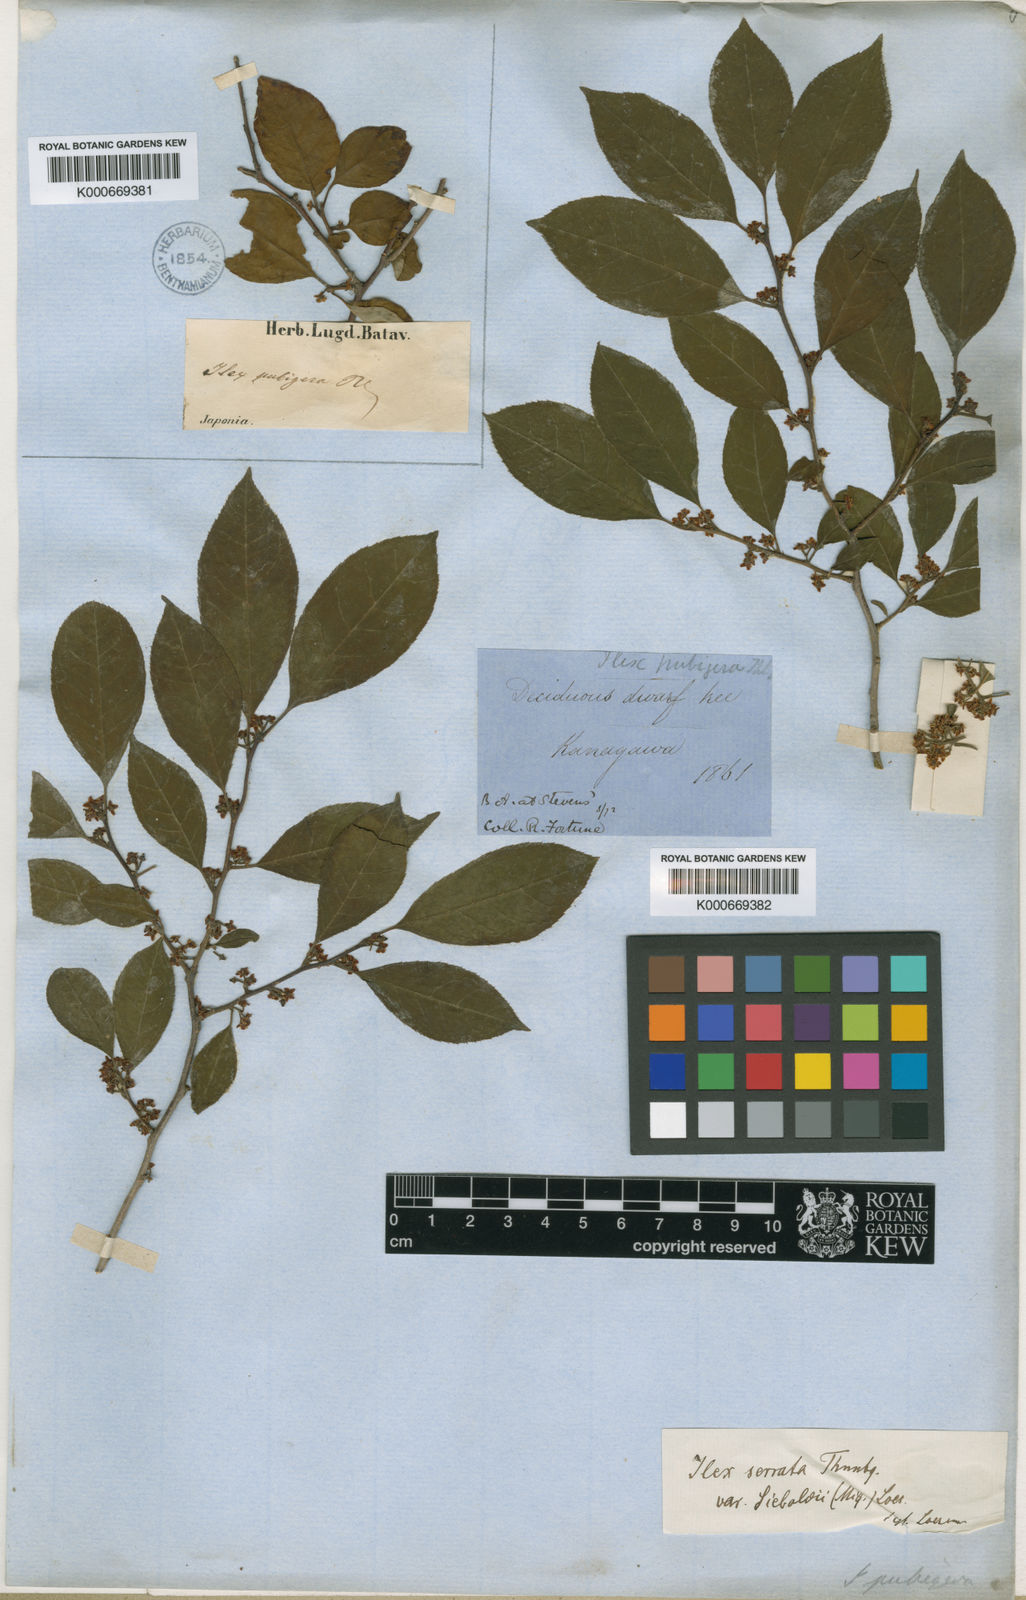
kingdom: Plantae
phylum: Tracheophyta
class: Magnoliopsida
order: Aquifoliales
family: Aquifoliaceae
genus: Ilex
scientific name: Ilex serrata
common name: Japanese winterberry
